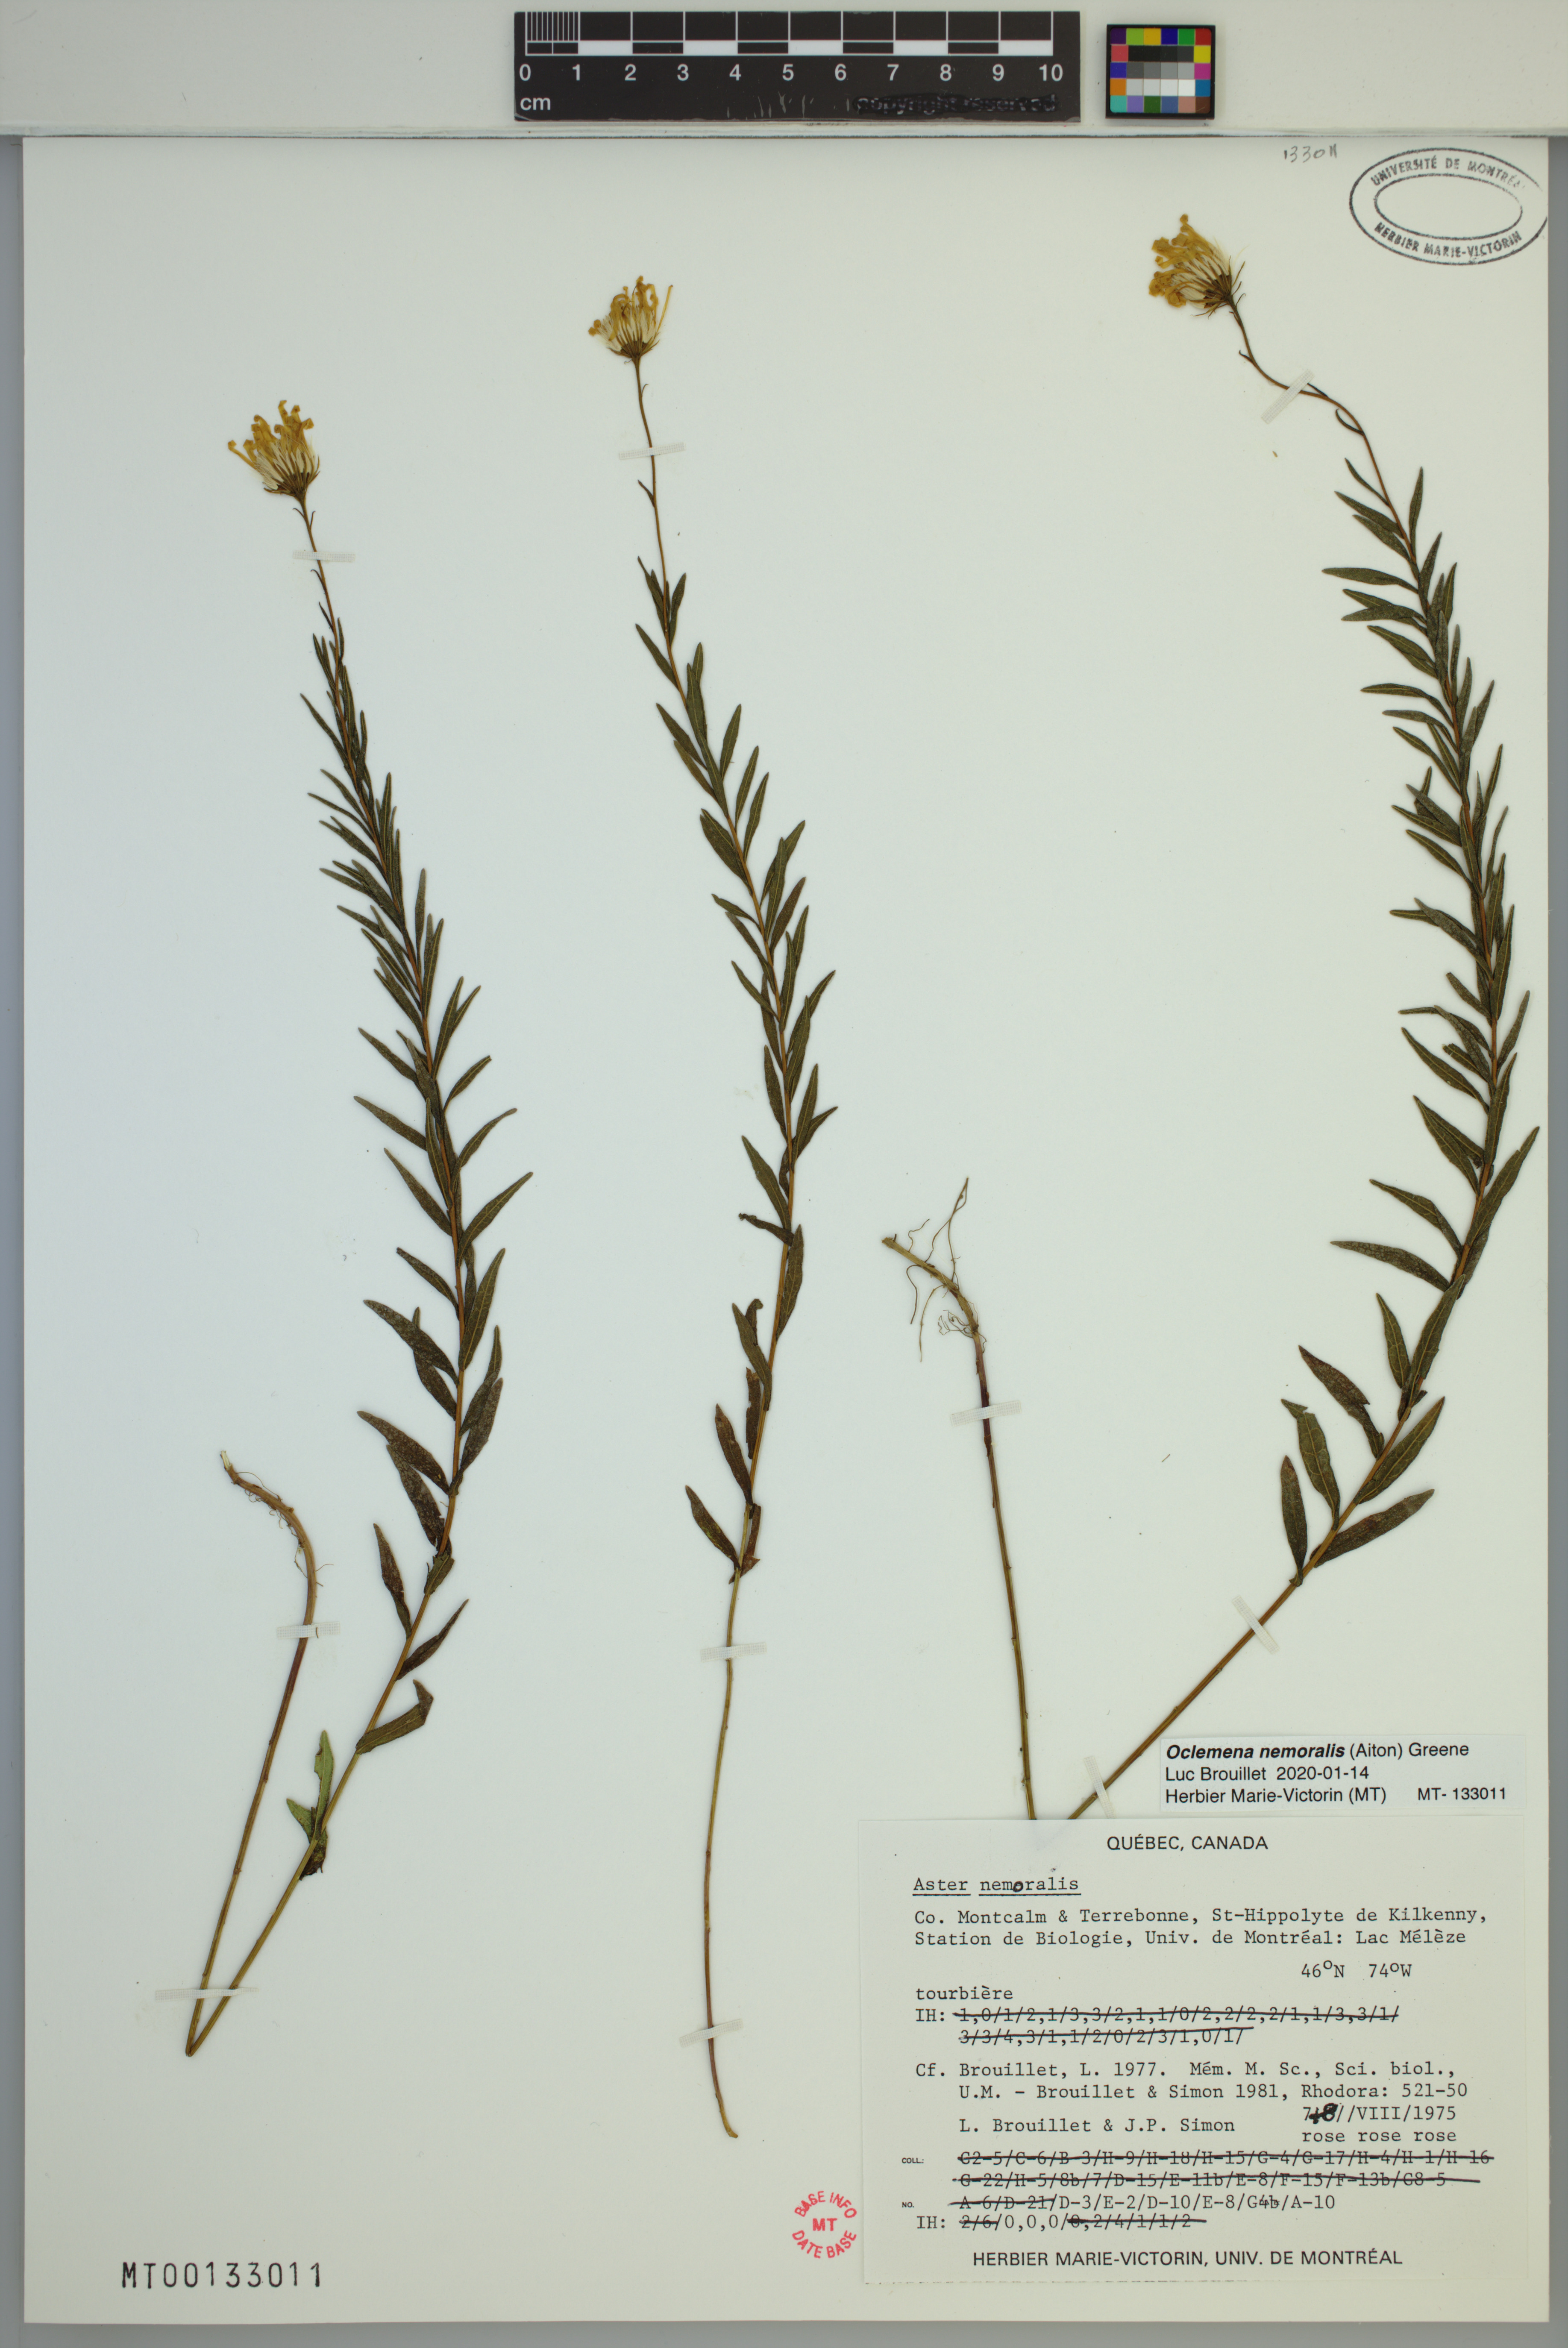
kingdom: Plantae
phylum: Tracheophyta
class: Magnoliopsida
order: Asterales
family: Asteraceae
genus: Oclemena
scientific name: Oclemena nemoralis
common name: Bog aster
